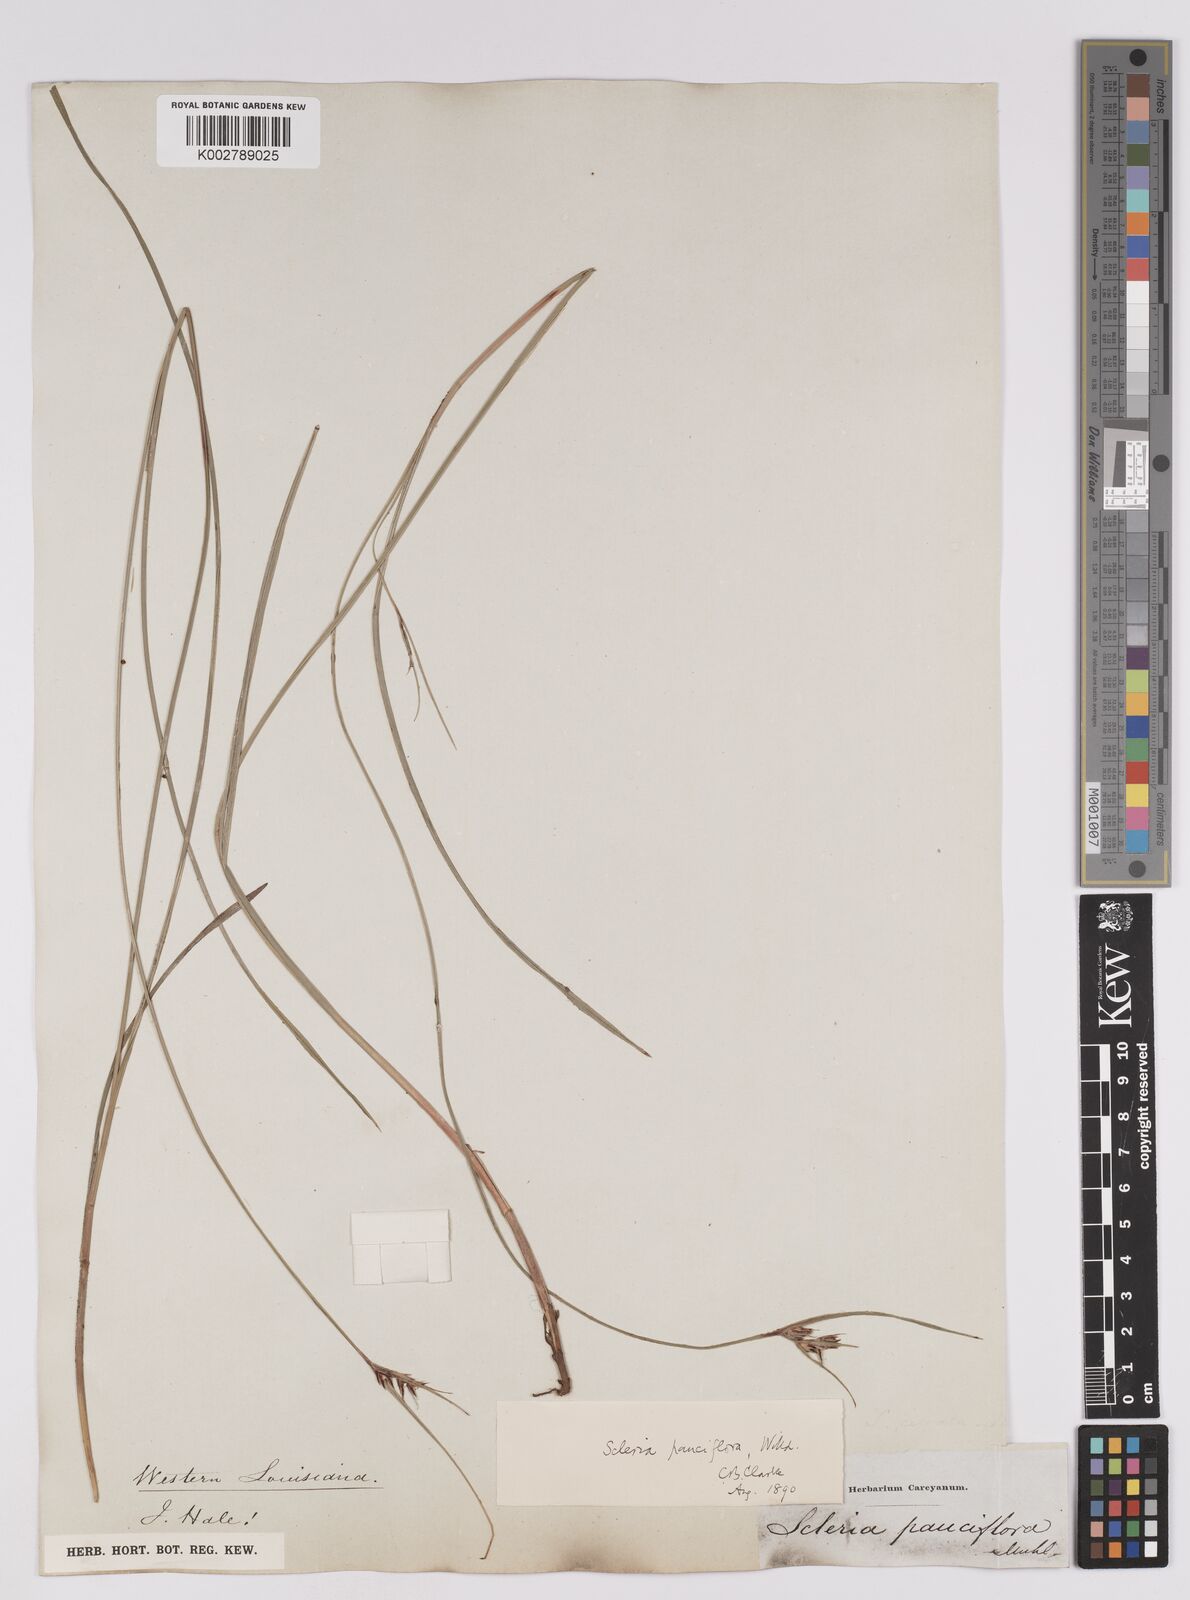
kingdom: Plantae
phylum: Tracheophyta
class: Liliopsida
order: Poales
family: Cyperaceae
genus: Scleria
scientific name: Scleria pauciflora
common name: Few-flowered nutrush
